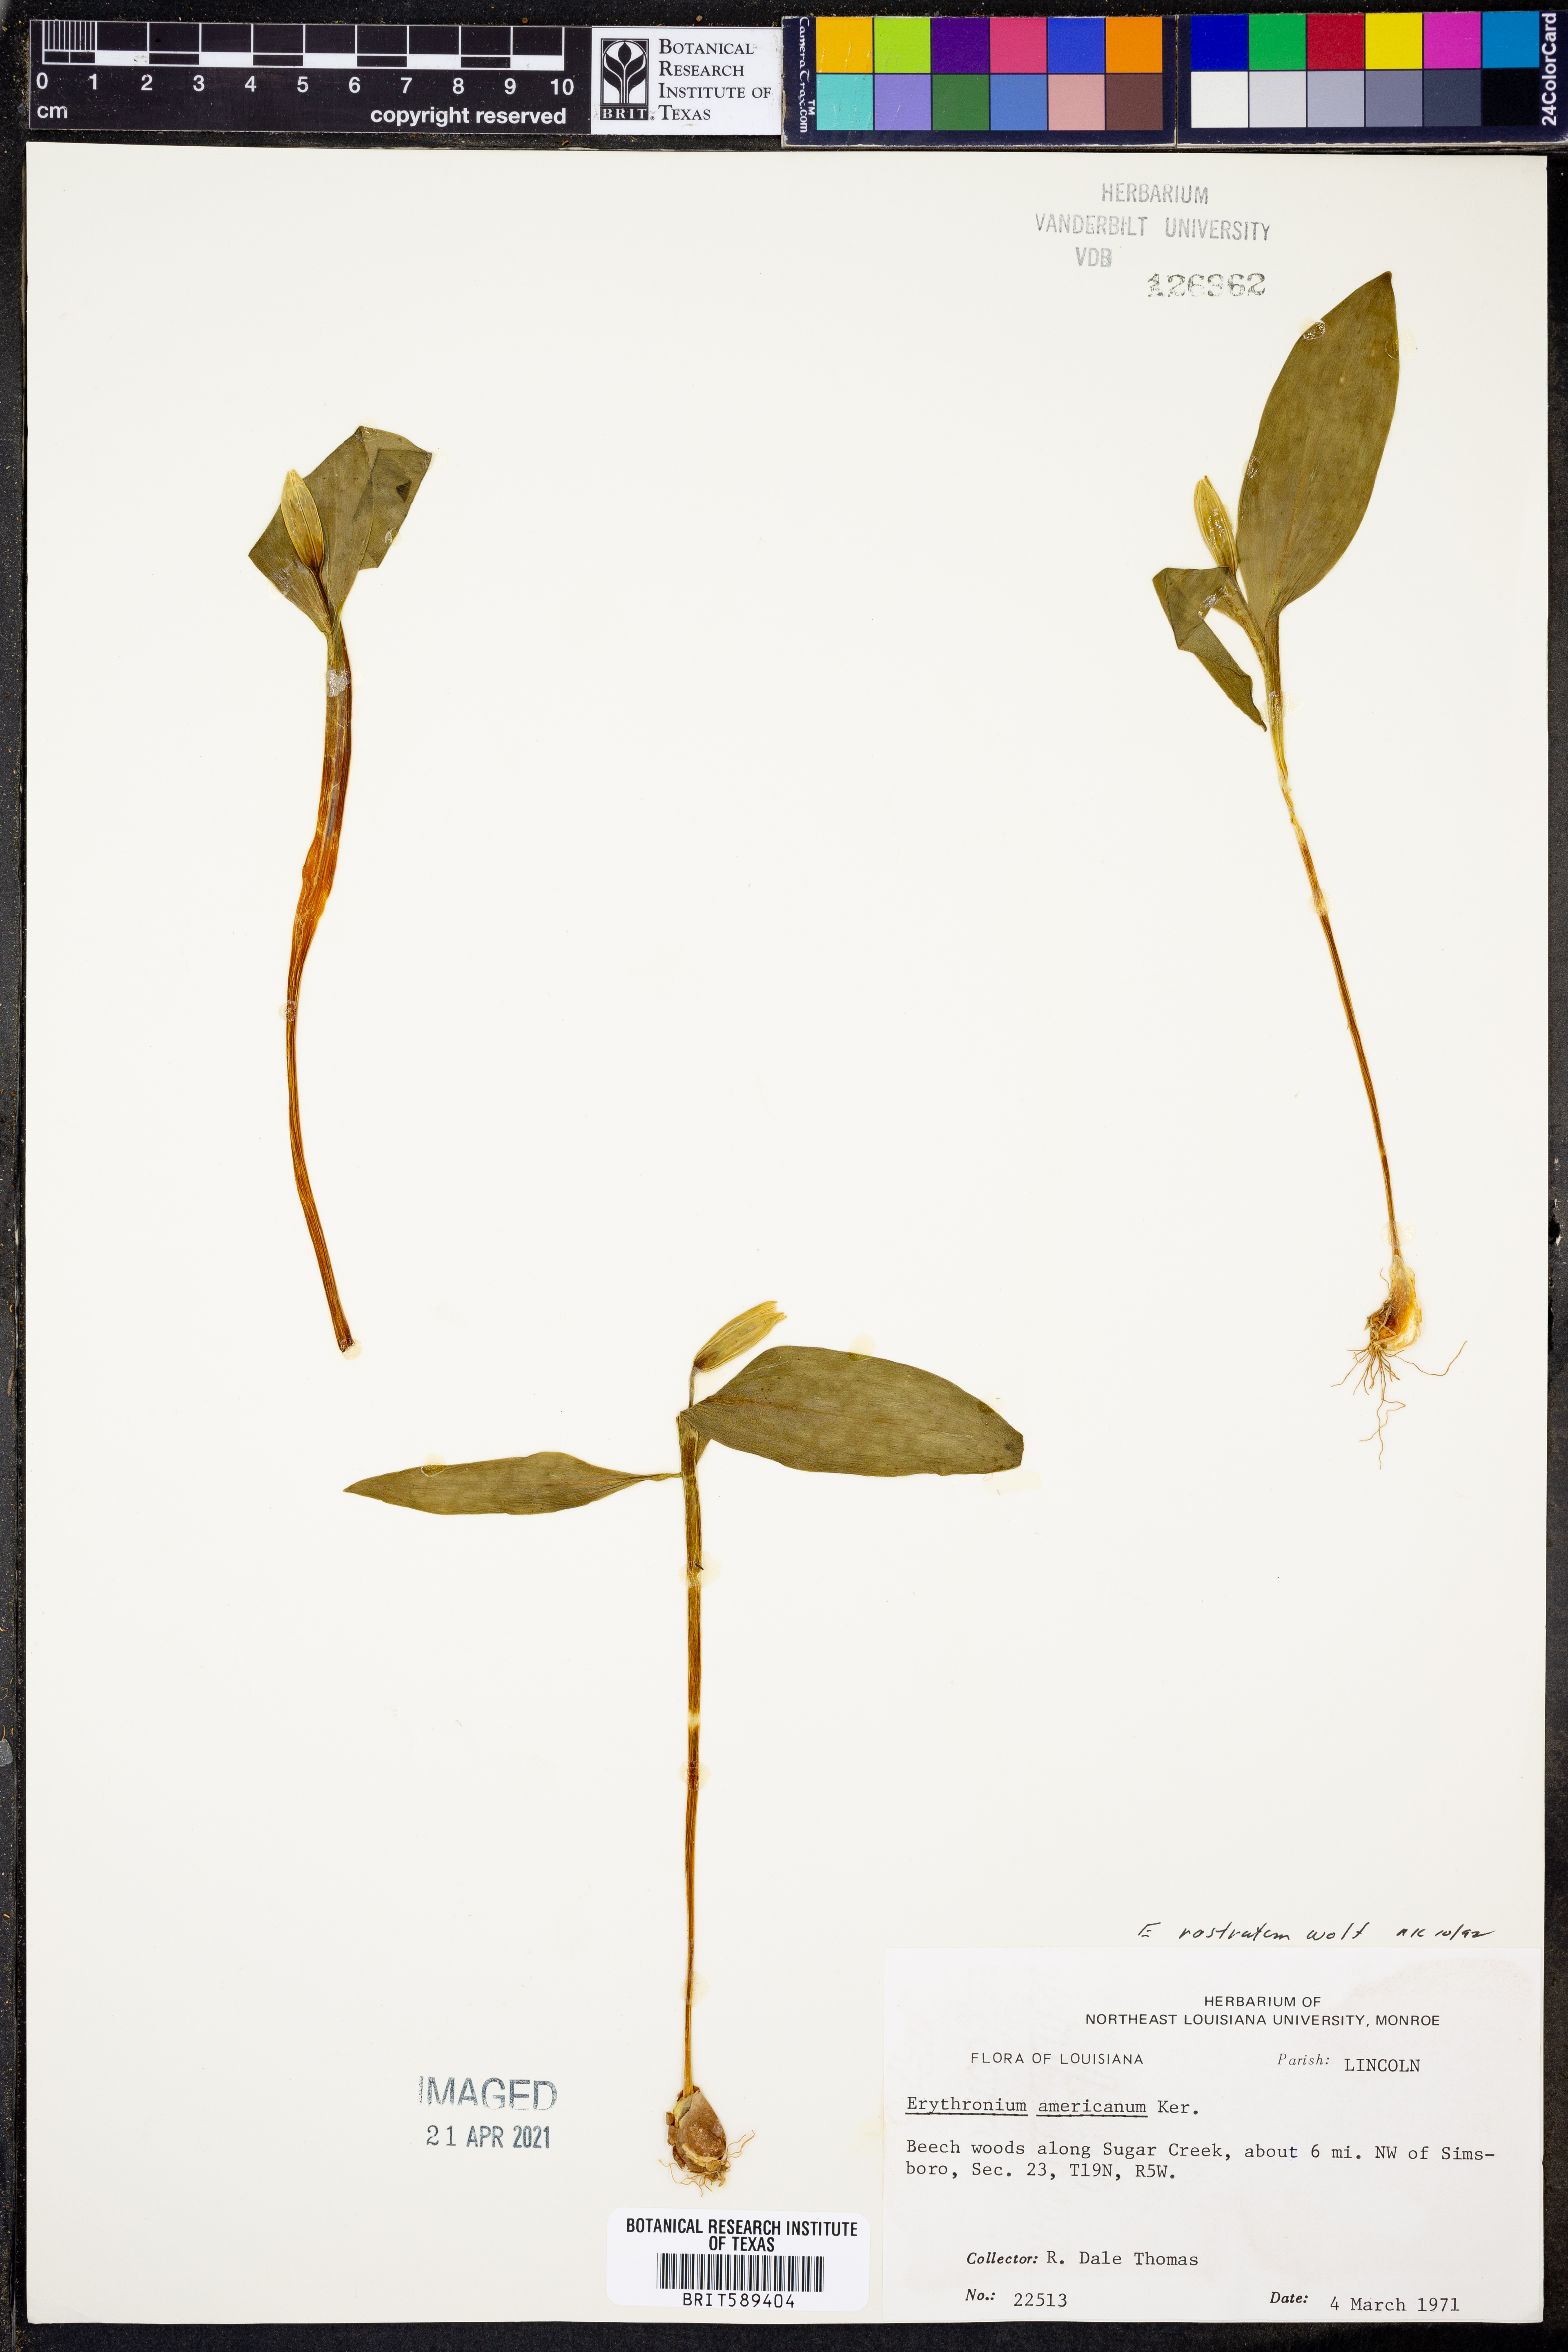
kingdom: Plantae
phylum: Tracheophyta
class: Liliopsida
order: Liliales
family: Liliaceae
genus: Erythronium
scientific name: Erythronium rostratum
